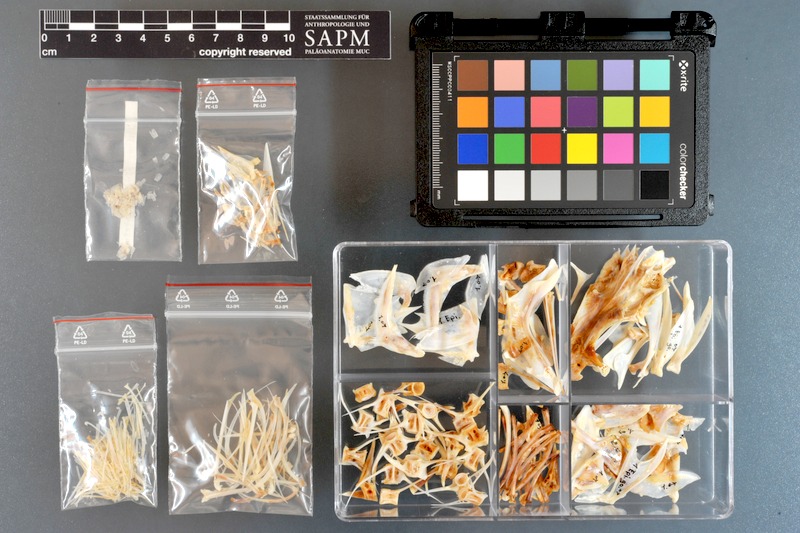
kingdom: Animalia
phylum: Chordata
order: Perciformes
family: Serranidae
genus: Epinephelus
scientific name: Epinephelus goreensis
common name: Dungat grouper
